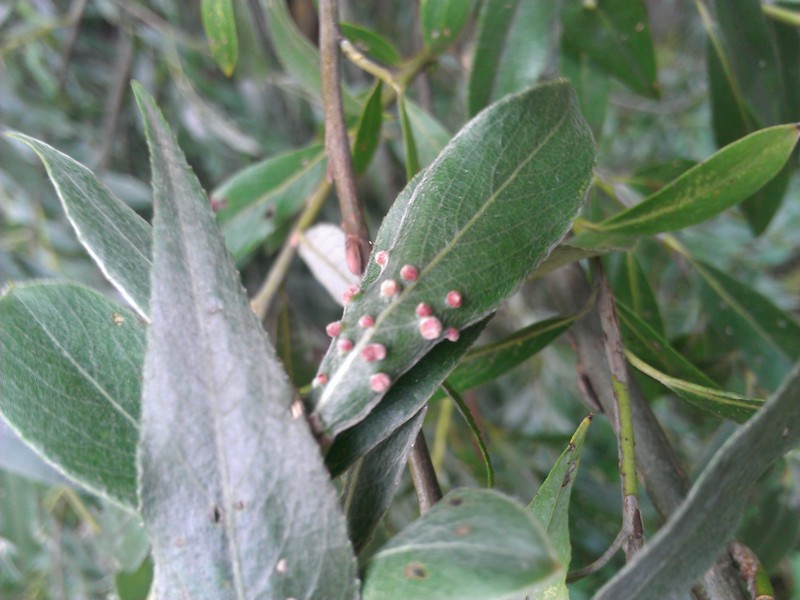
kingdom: Animalia
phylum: Arthropoda
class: Arachnida
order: Trombidiformes
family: Eriophyidae
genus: Aceria
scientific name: Aceria tetanothorax
